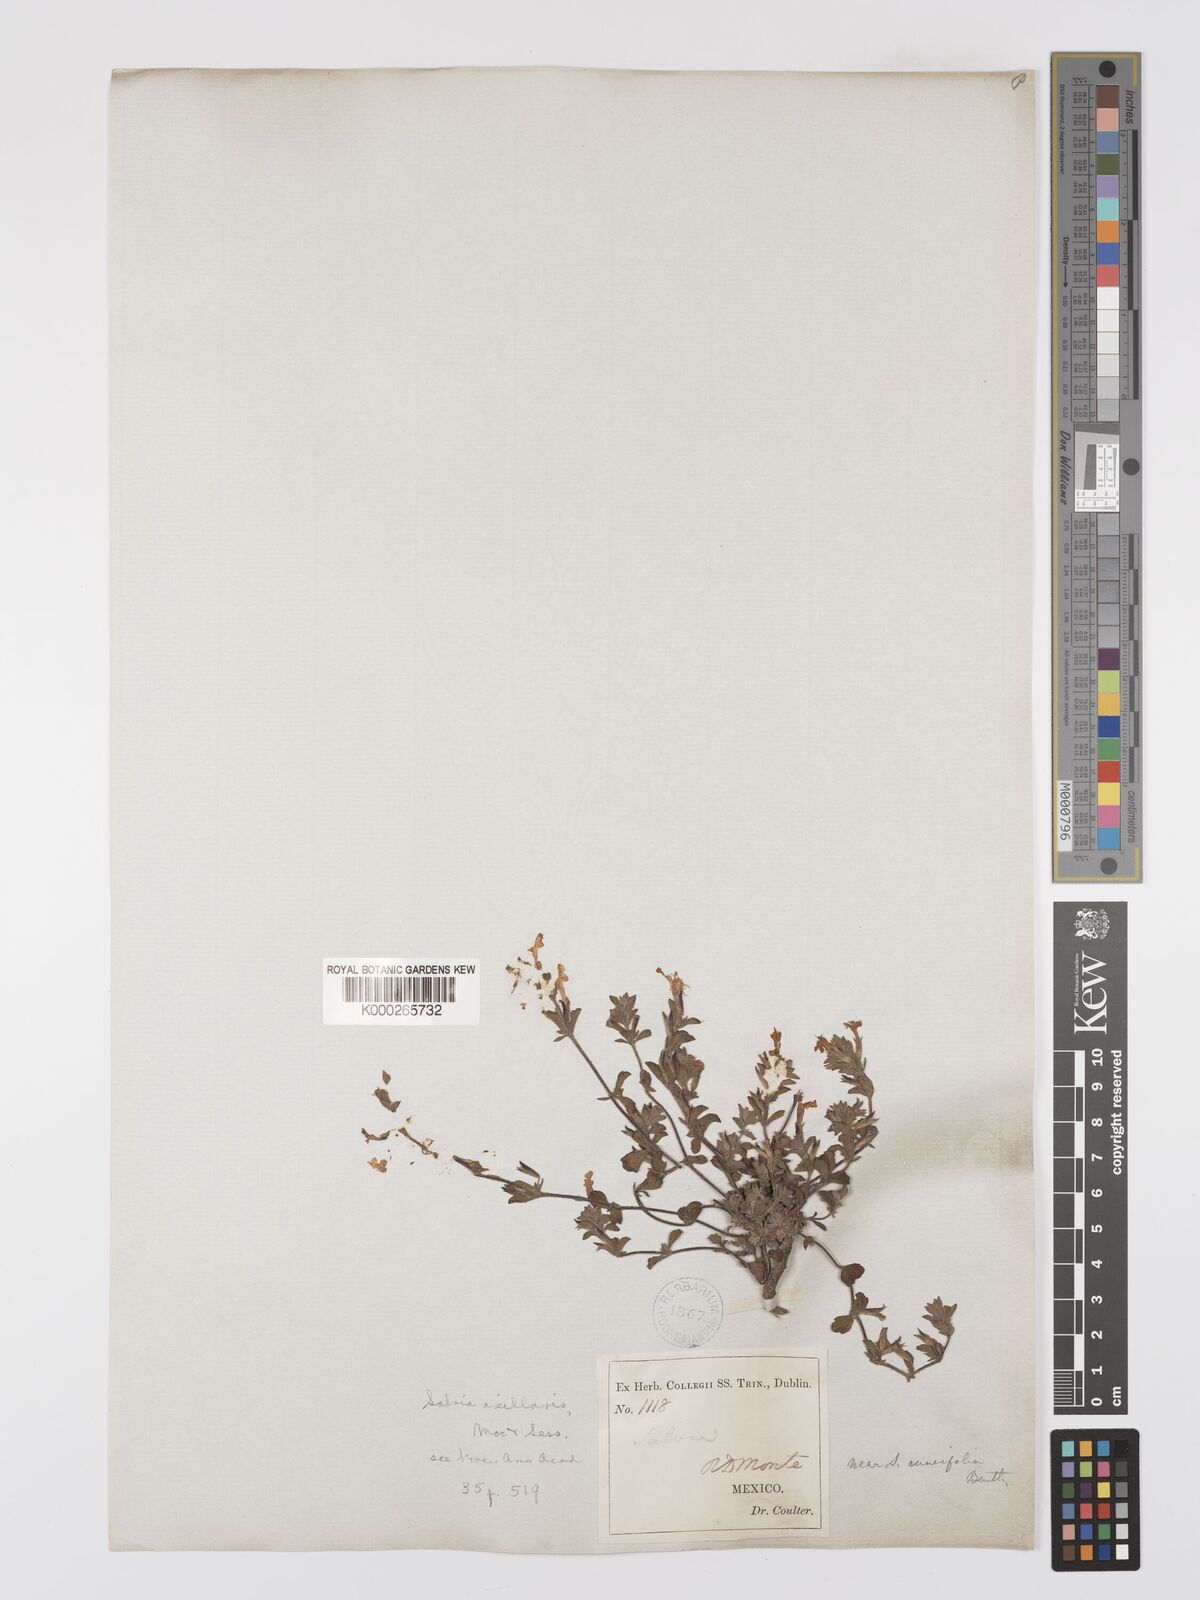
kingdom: Plantae
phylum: Tracheophyta
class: Magnoliopsida
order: Lamiales
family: Lamiaceae
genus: Salvia
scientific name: Salvia
